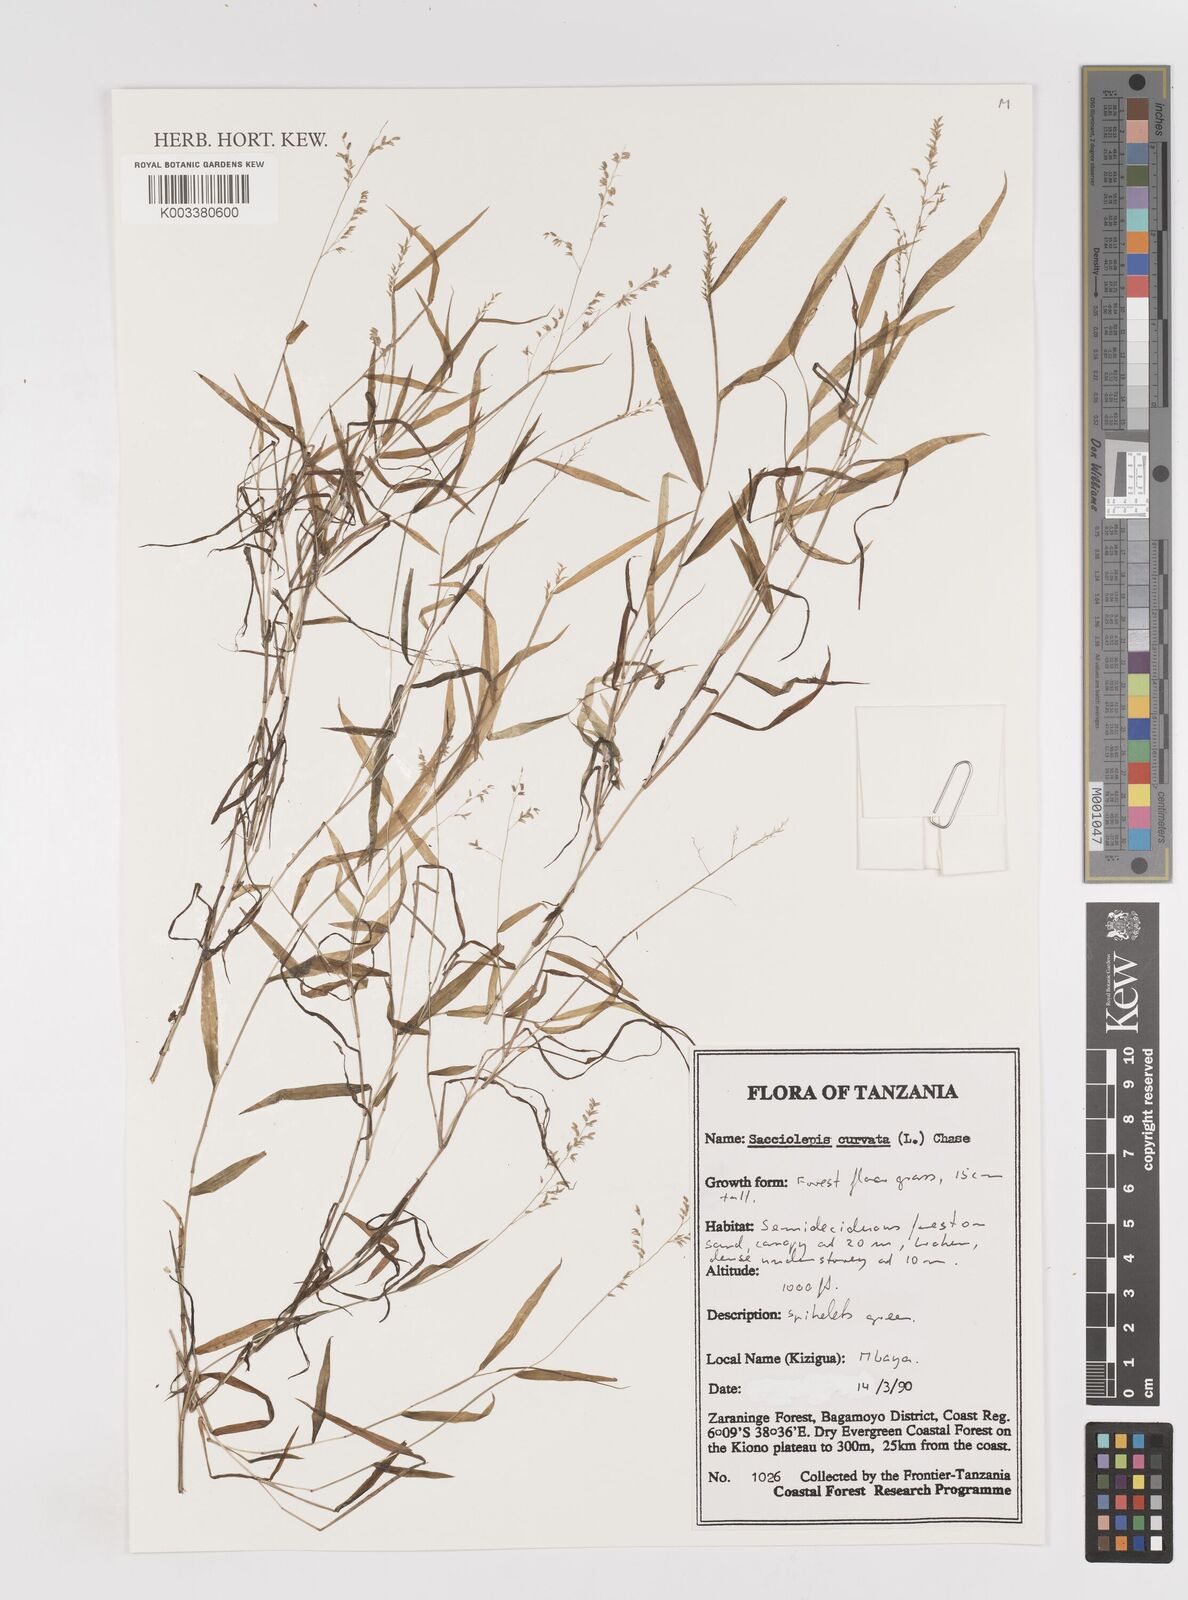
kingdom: Plantae
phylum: Tracheophyta
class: Liliopsida
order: Poales
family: Poaceae
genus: Sacciolepis
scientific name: Sacciolepis curvata
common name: Forest hood grass
